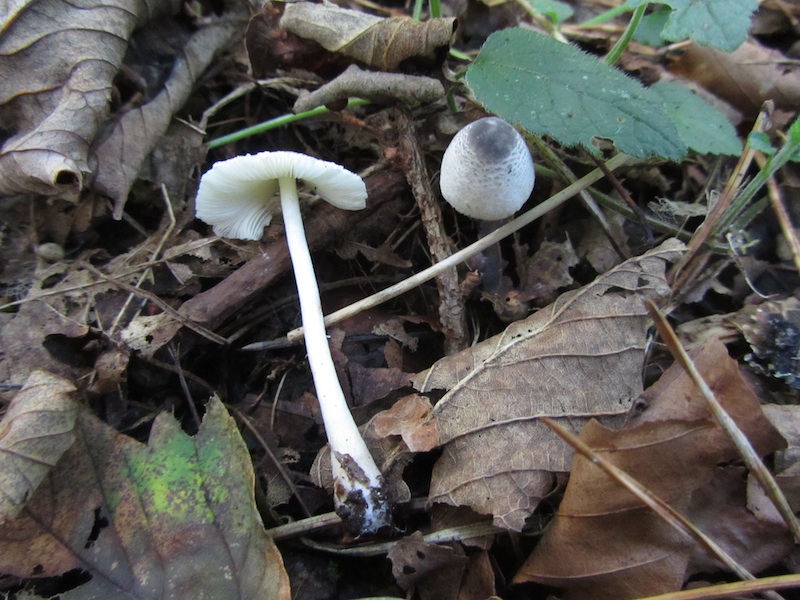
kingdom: Fungi
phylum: Basidiomycota
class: Agaricomycetes
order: Agaricales
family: Agaricaceae
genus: Leucocoprinus
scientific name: Leucocoprinus brebissonii
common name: gråsort silkehat
